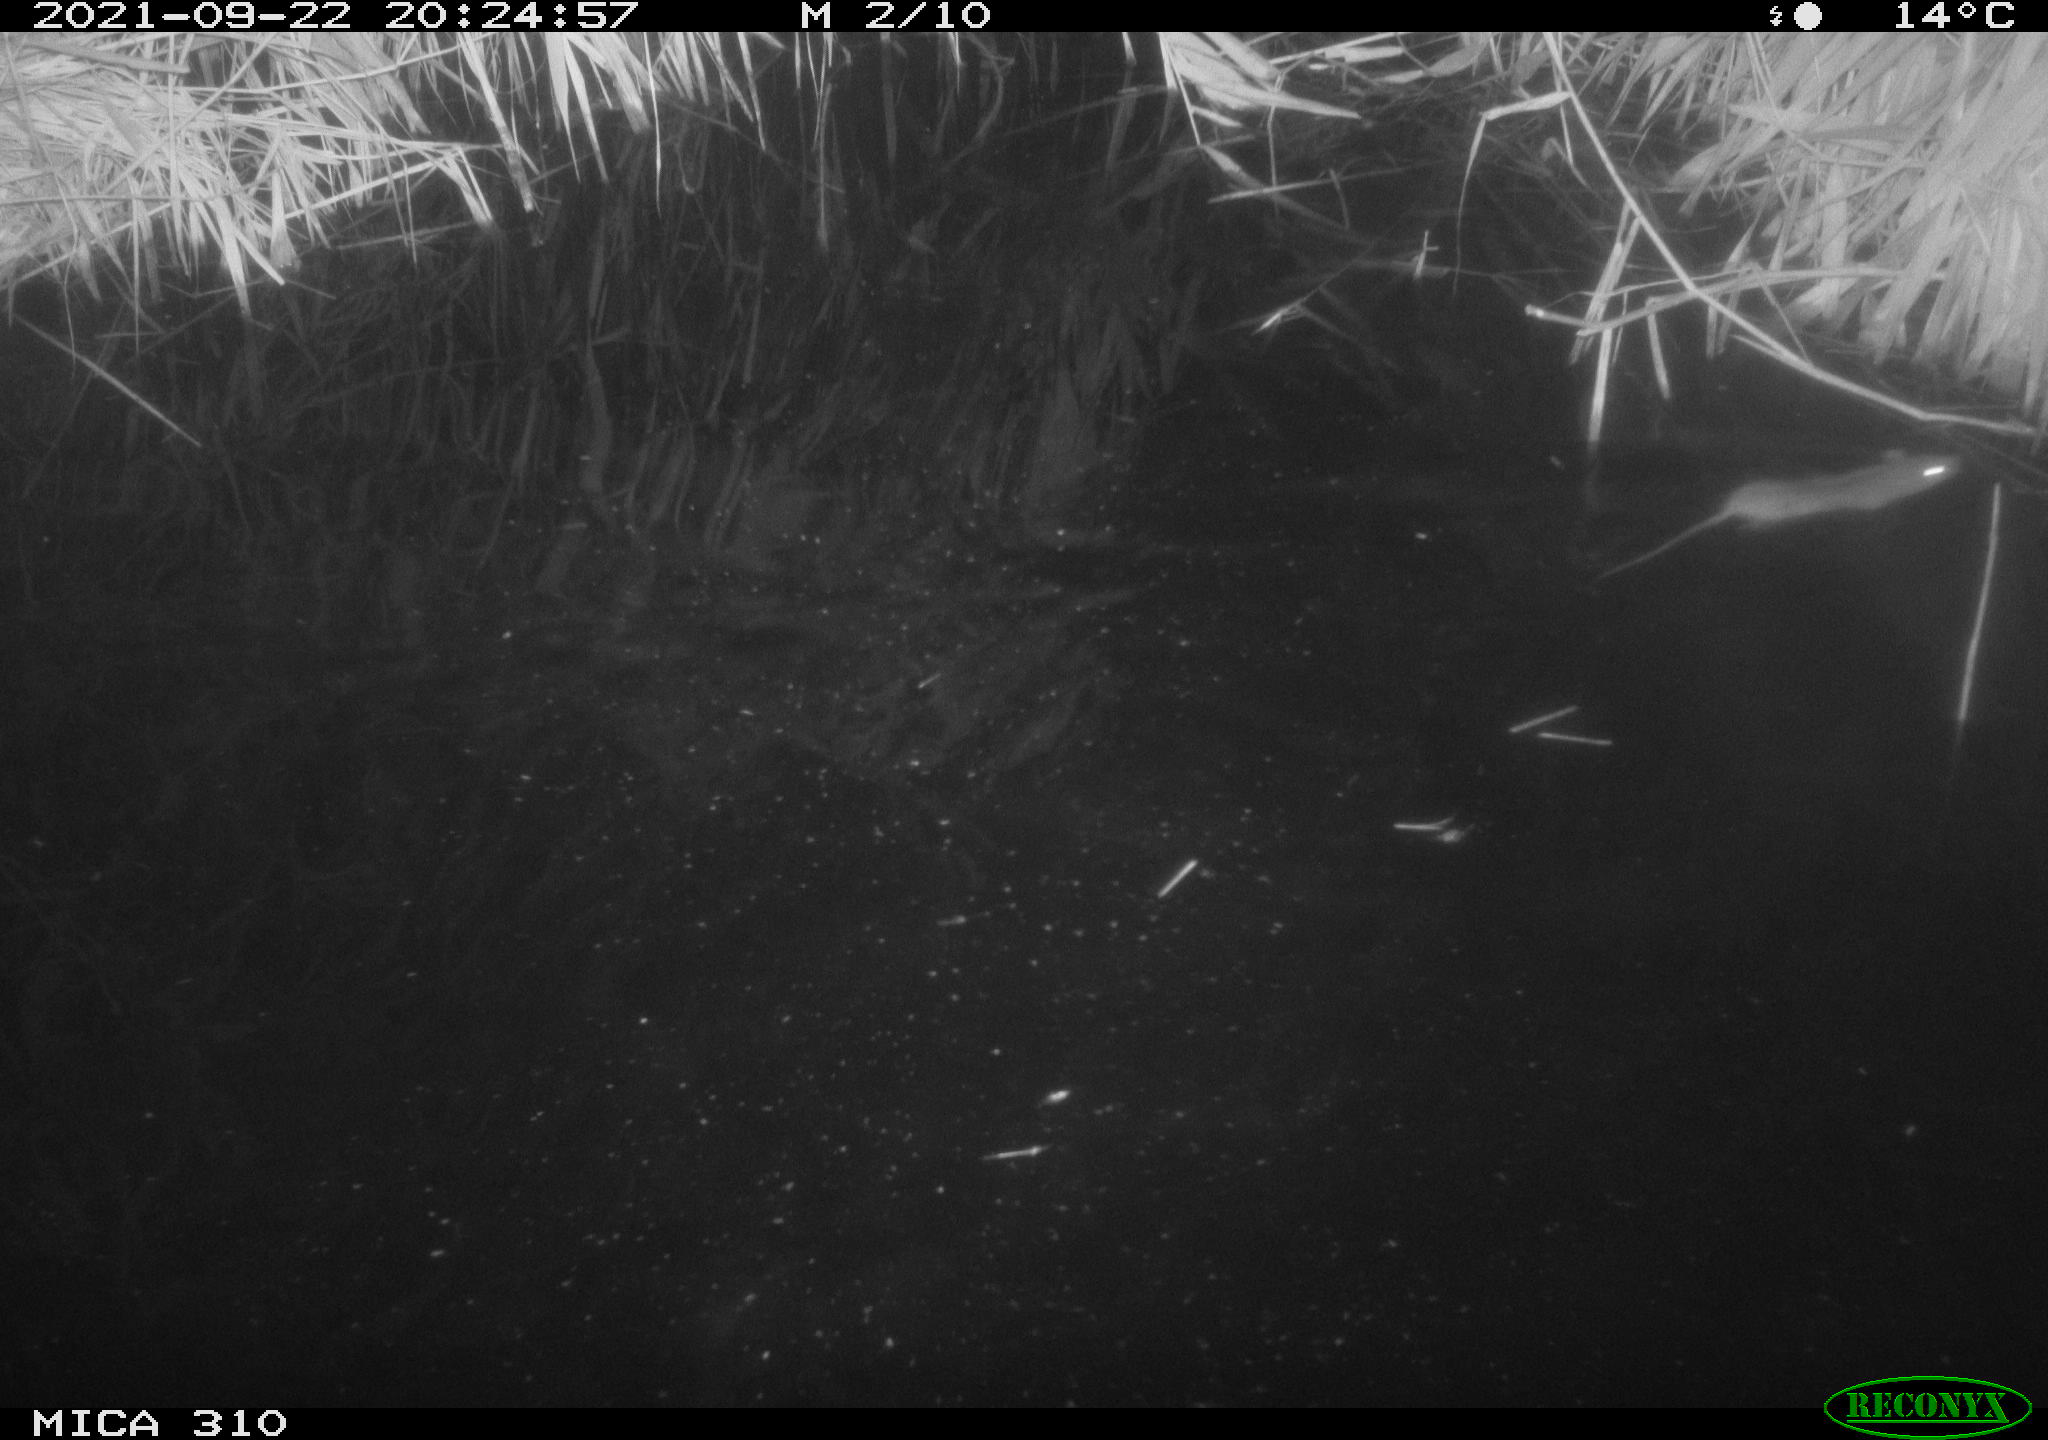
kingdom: Animalia
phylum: Chordata
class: Mammalia
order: Rodentia
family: Muridae
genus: Rattus
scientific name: Rattus norvegicus
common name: Brown rat
